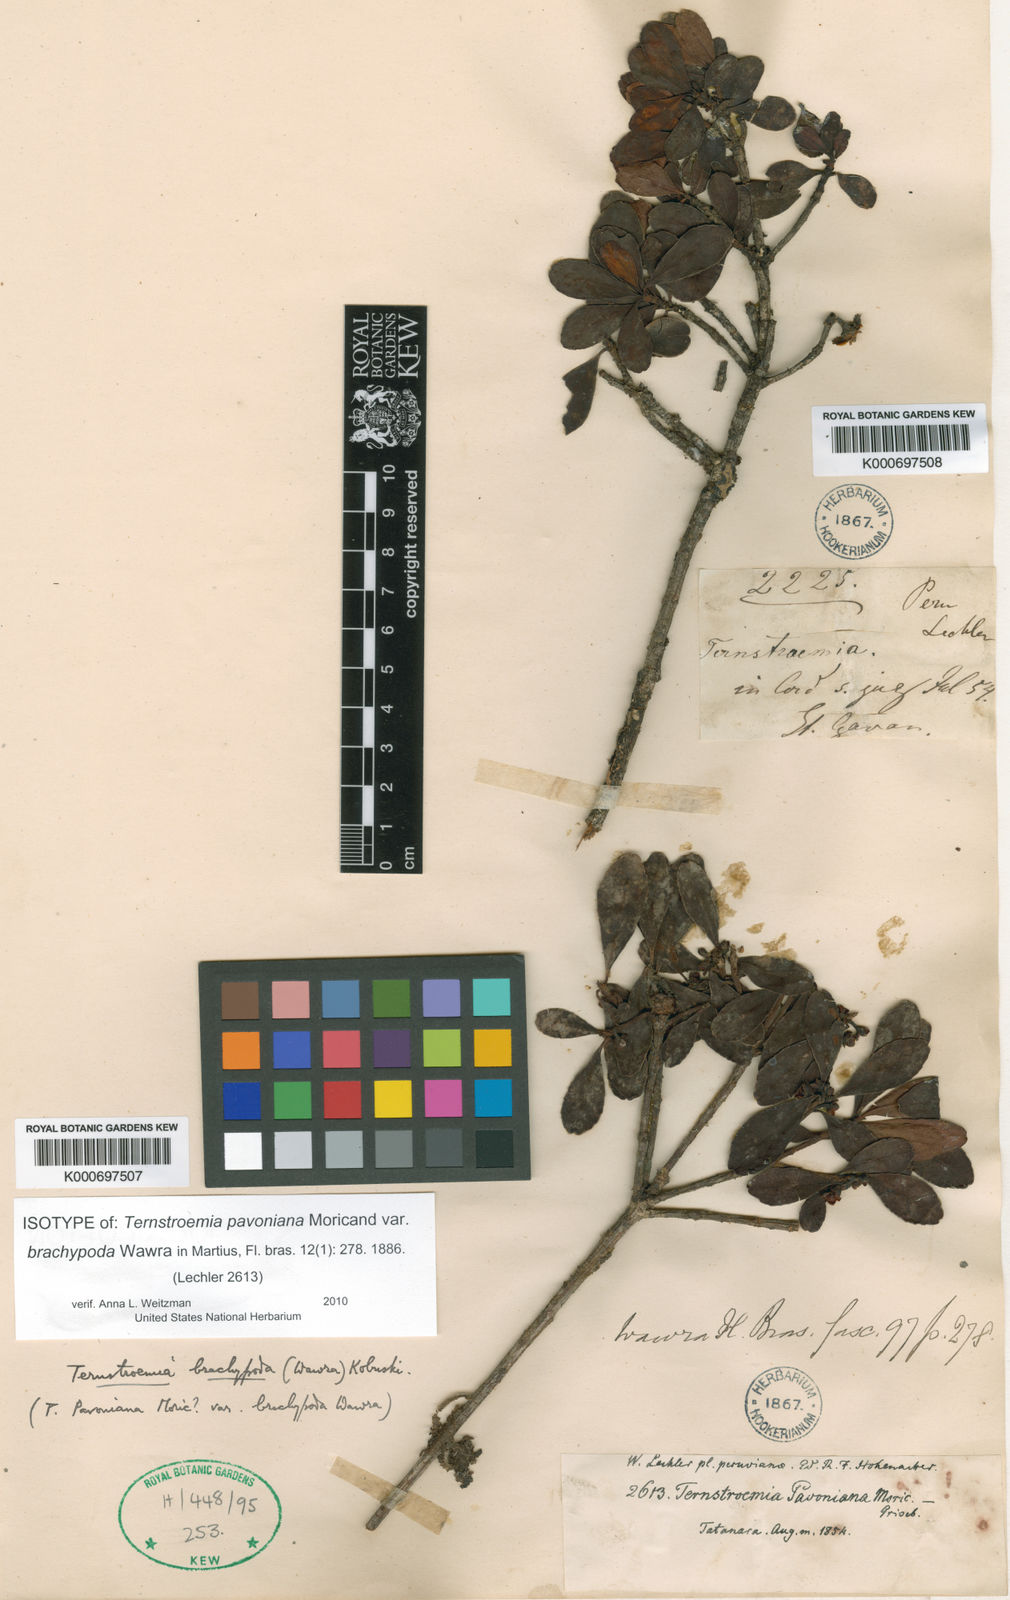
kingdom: Plantae
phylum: Tracheophyta
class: Magnoliopsida
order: Ericales
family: Pentaphylacaceae
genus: Ternstroemia
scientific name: Ternstroemia brachypoda
